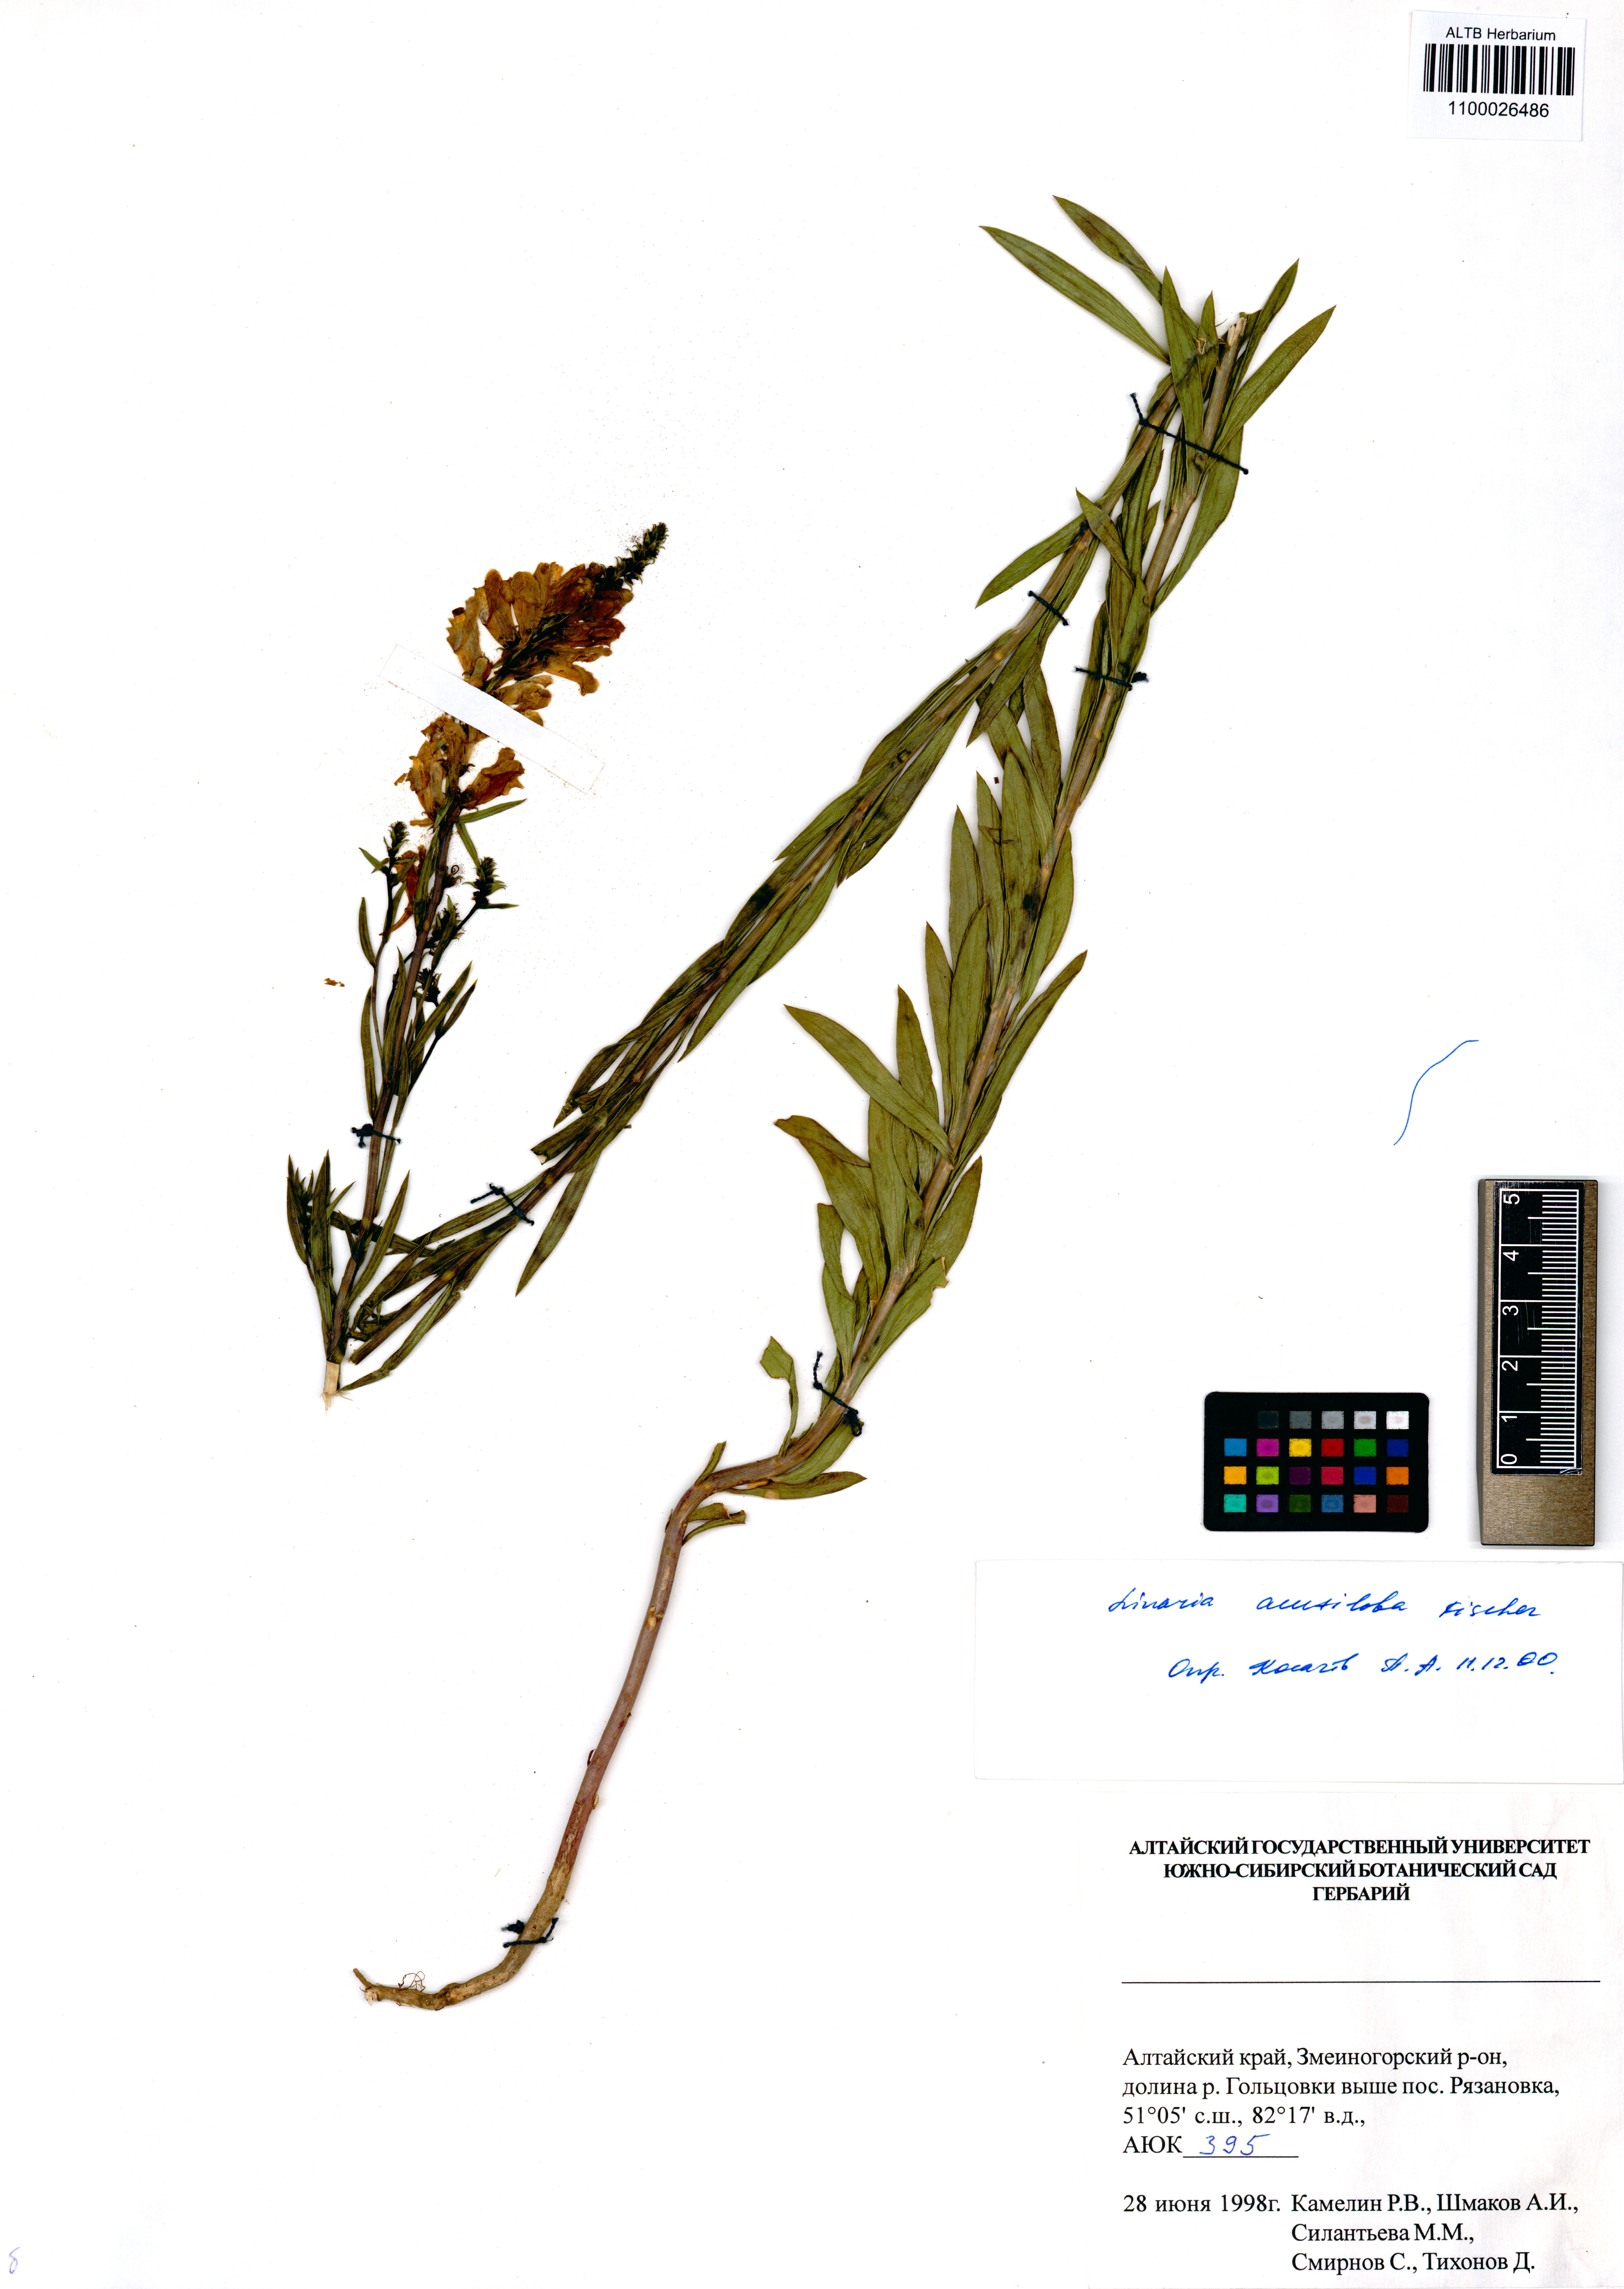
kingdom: Plantae
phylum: Tracheophyta
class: Magnoliopsida
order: Lamiales
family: Plantaginaceae
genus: Linaria
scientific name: Linaria acutiloba
